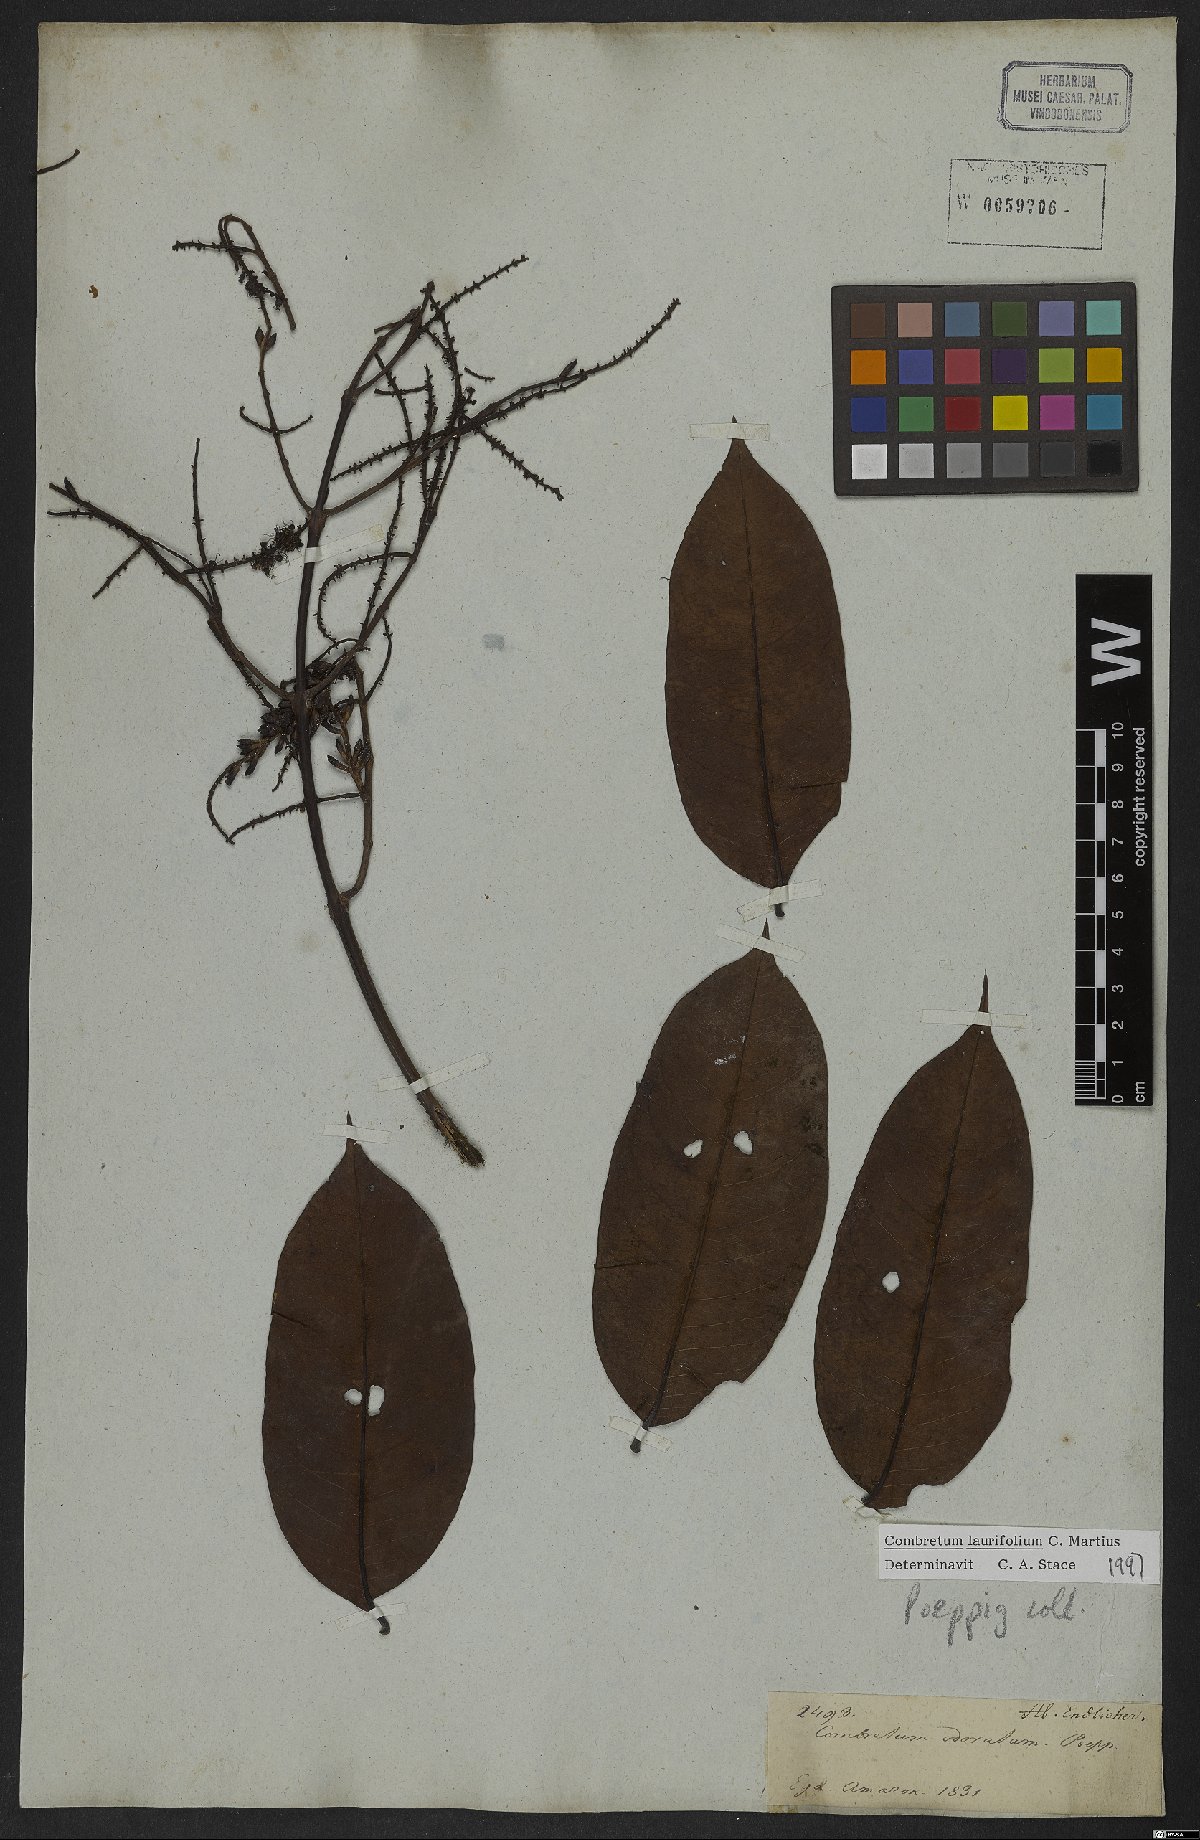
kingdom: Plantae
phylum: Tracheophyta
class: Magnoliopsida
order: Myrtales
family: Combretaceae
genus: Combretum
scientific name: Combretum coriifolium
